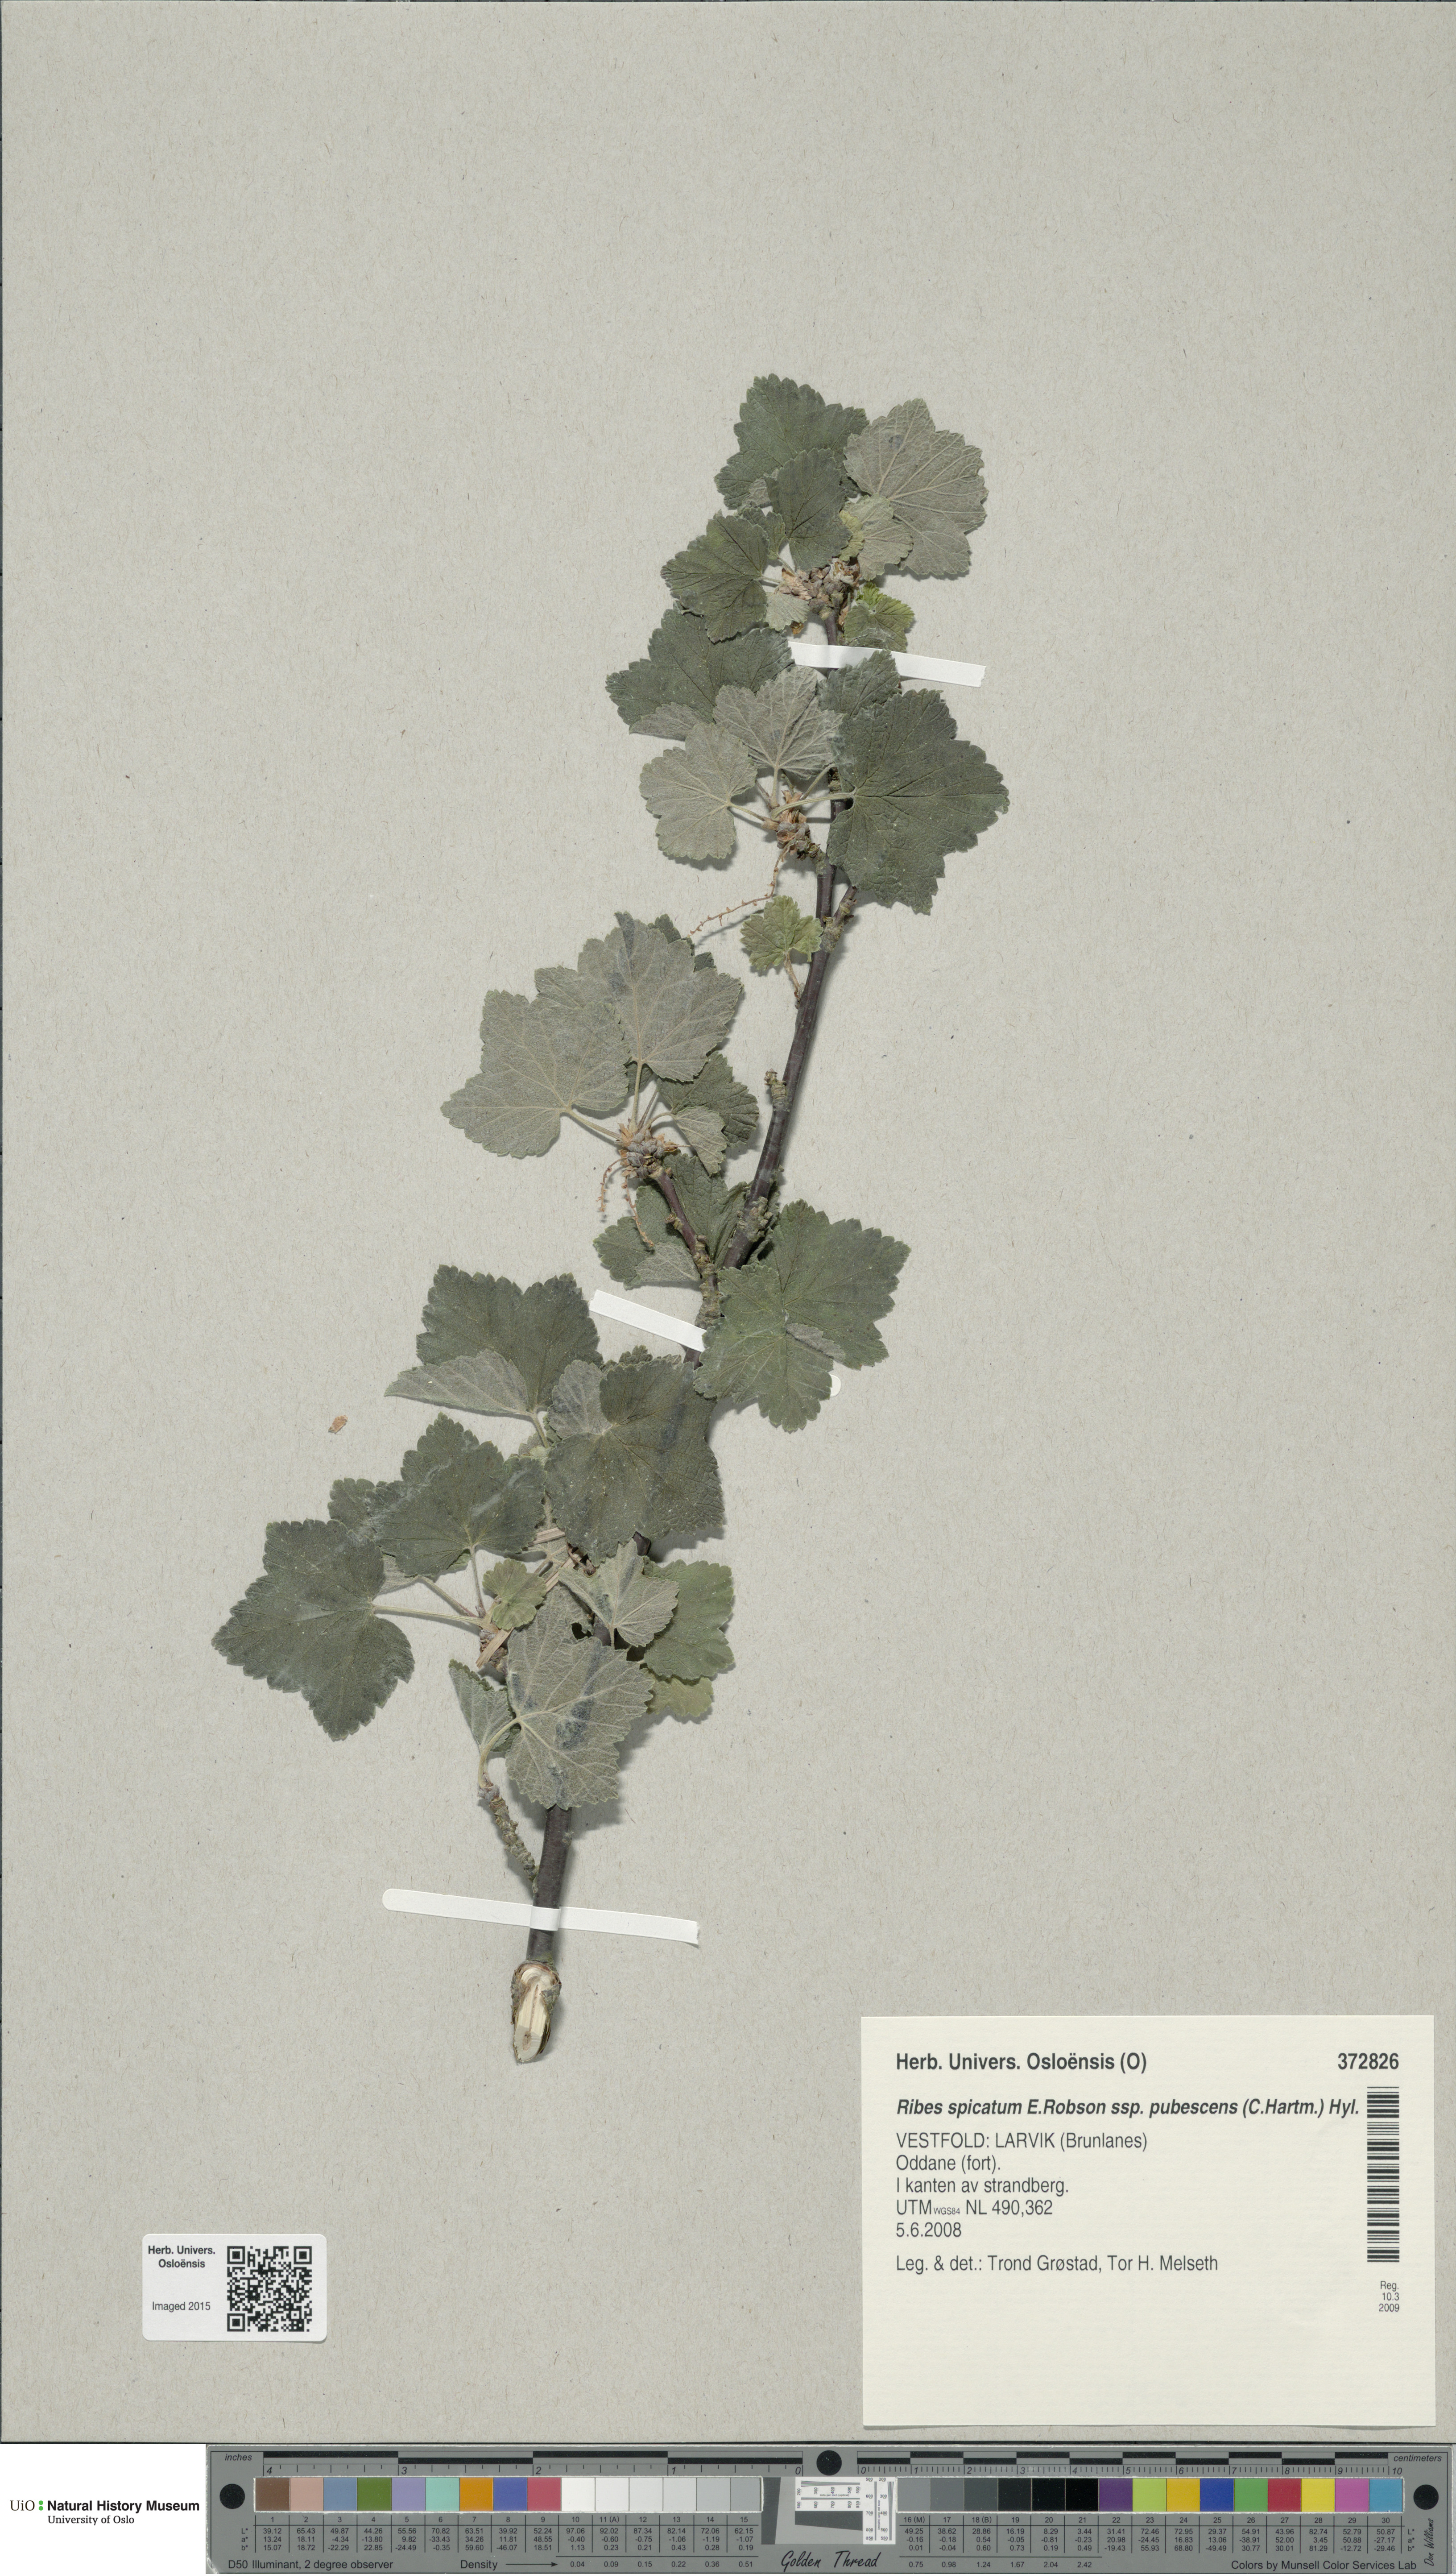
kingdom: Plantae
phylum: Tracheophyta
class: Magnoliopsida
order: Saxifragales
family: Grossulariaceae
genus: Ribes
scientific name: Ribes spicatum
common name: Downy currant
